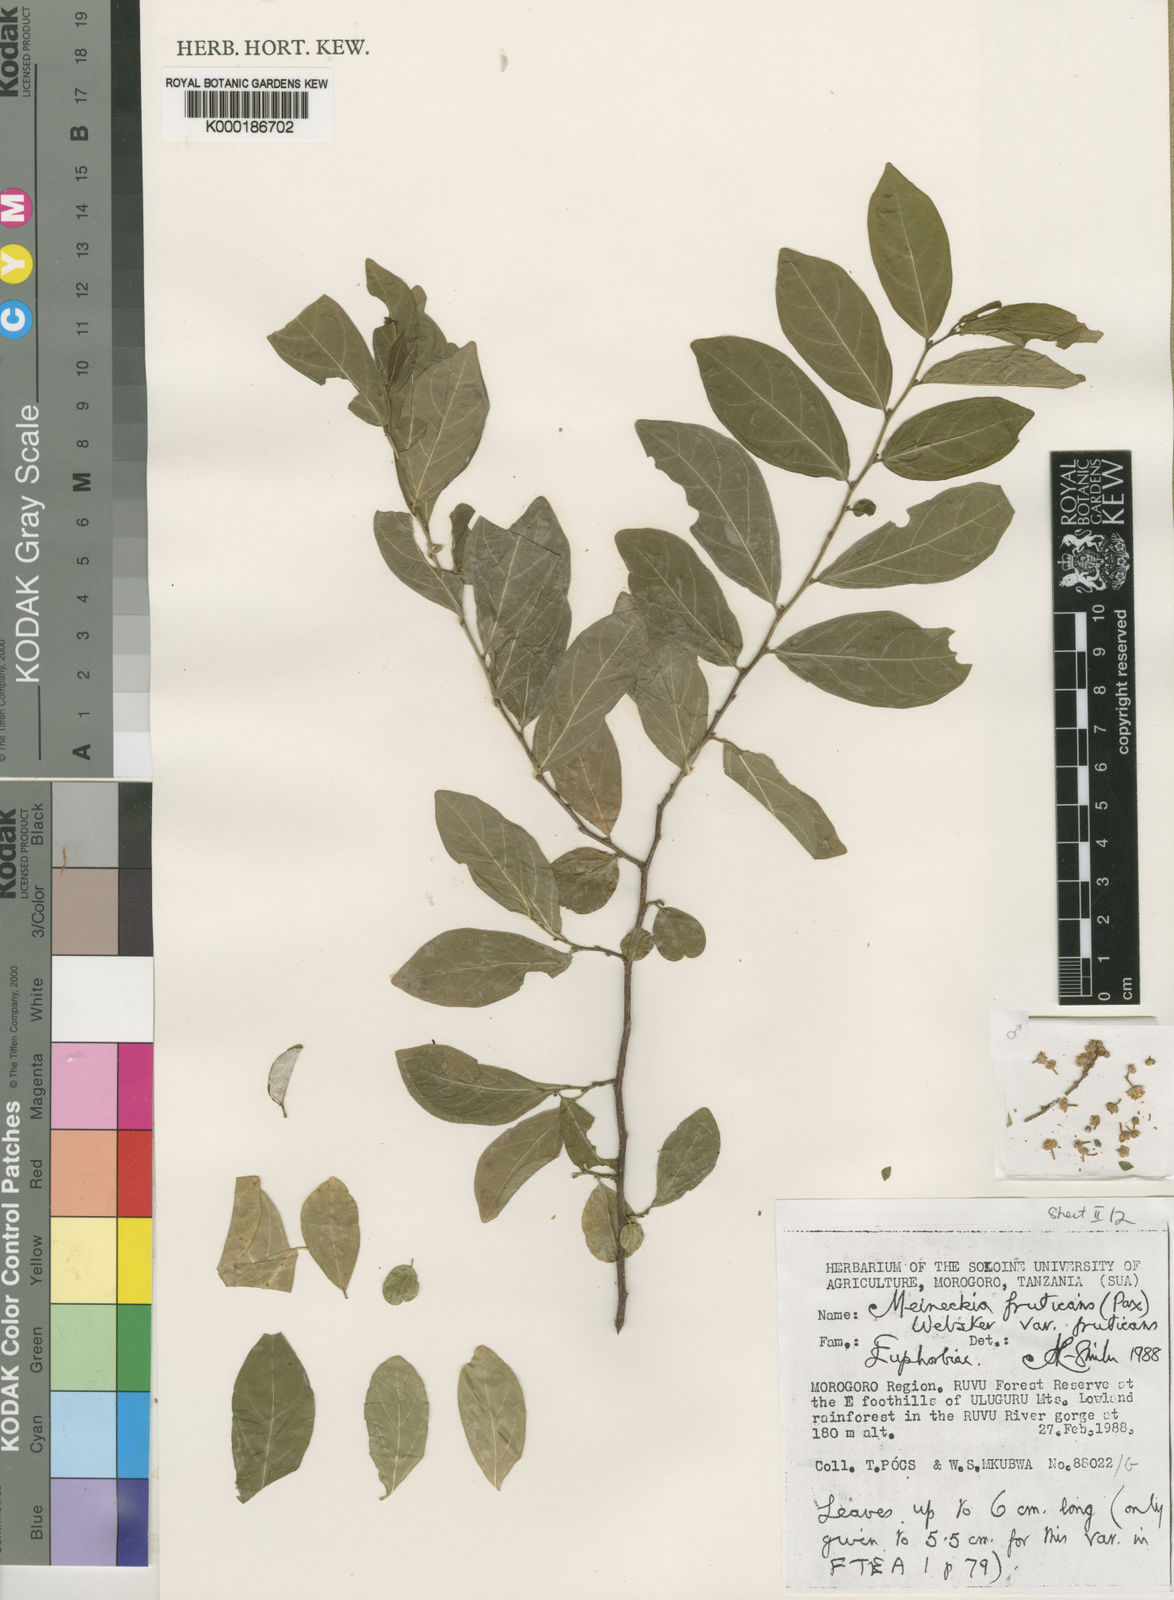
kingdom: Plantae
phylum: Tracheophyta
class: Magnoliopsida
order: Malpighiales
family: Phyllanthaceae
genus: Meineckia
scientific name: Meineckia fruticans
